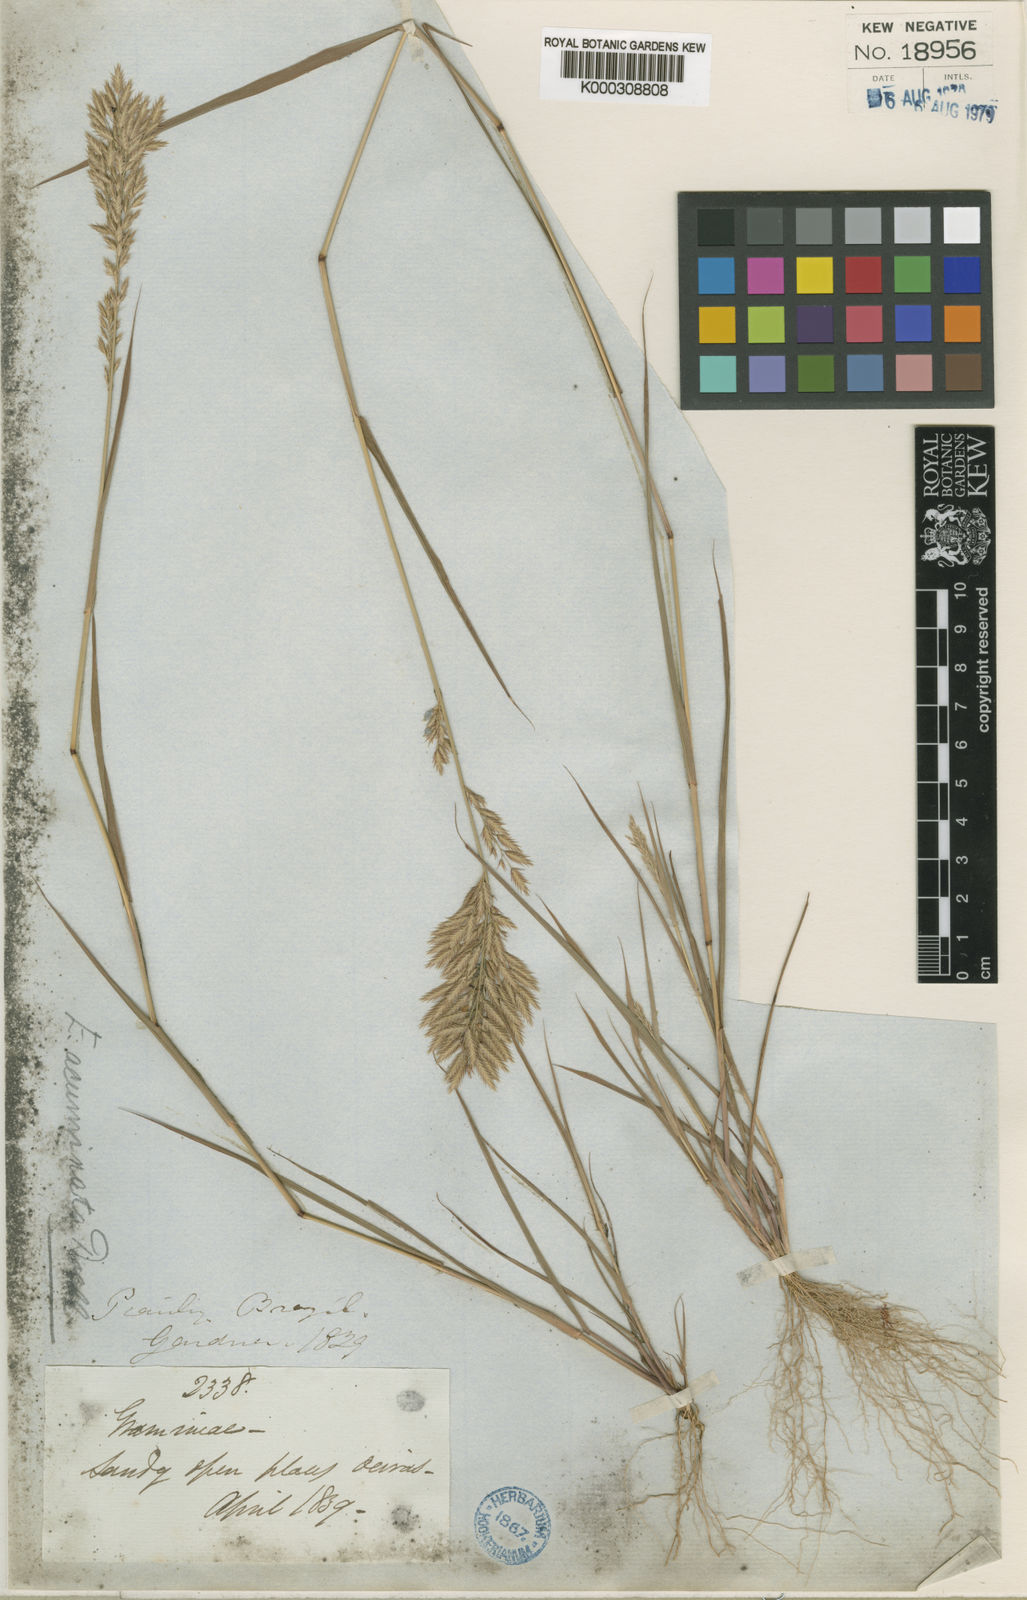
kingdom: Plantae
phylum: Tracheophyta
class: Liliopsida
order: Poales
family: Poaceae
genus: Eragrostis
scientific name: Eragrostis maypurensis
